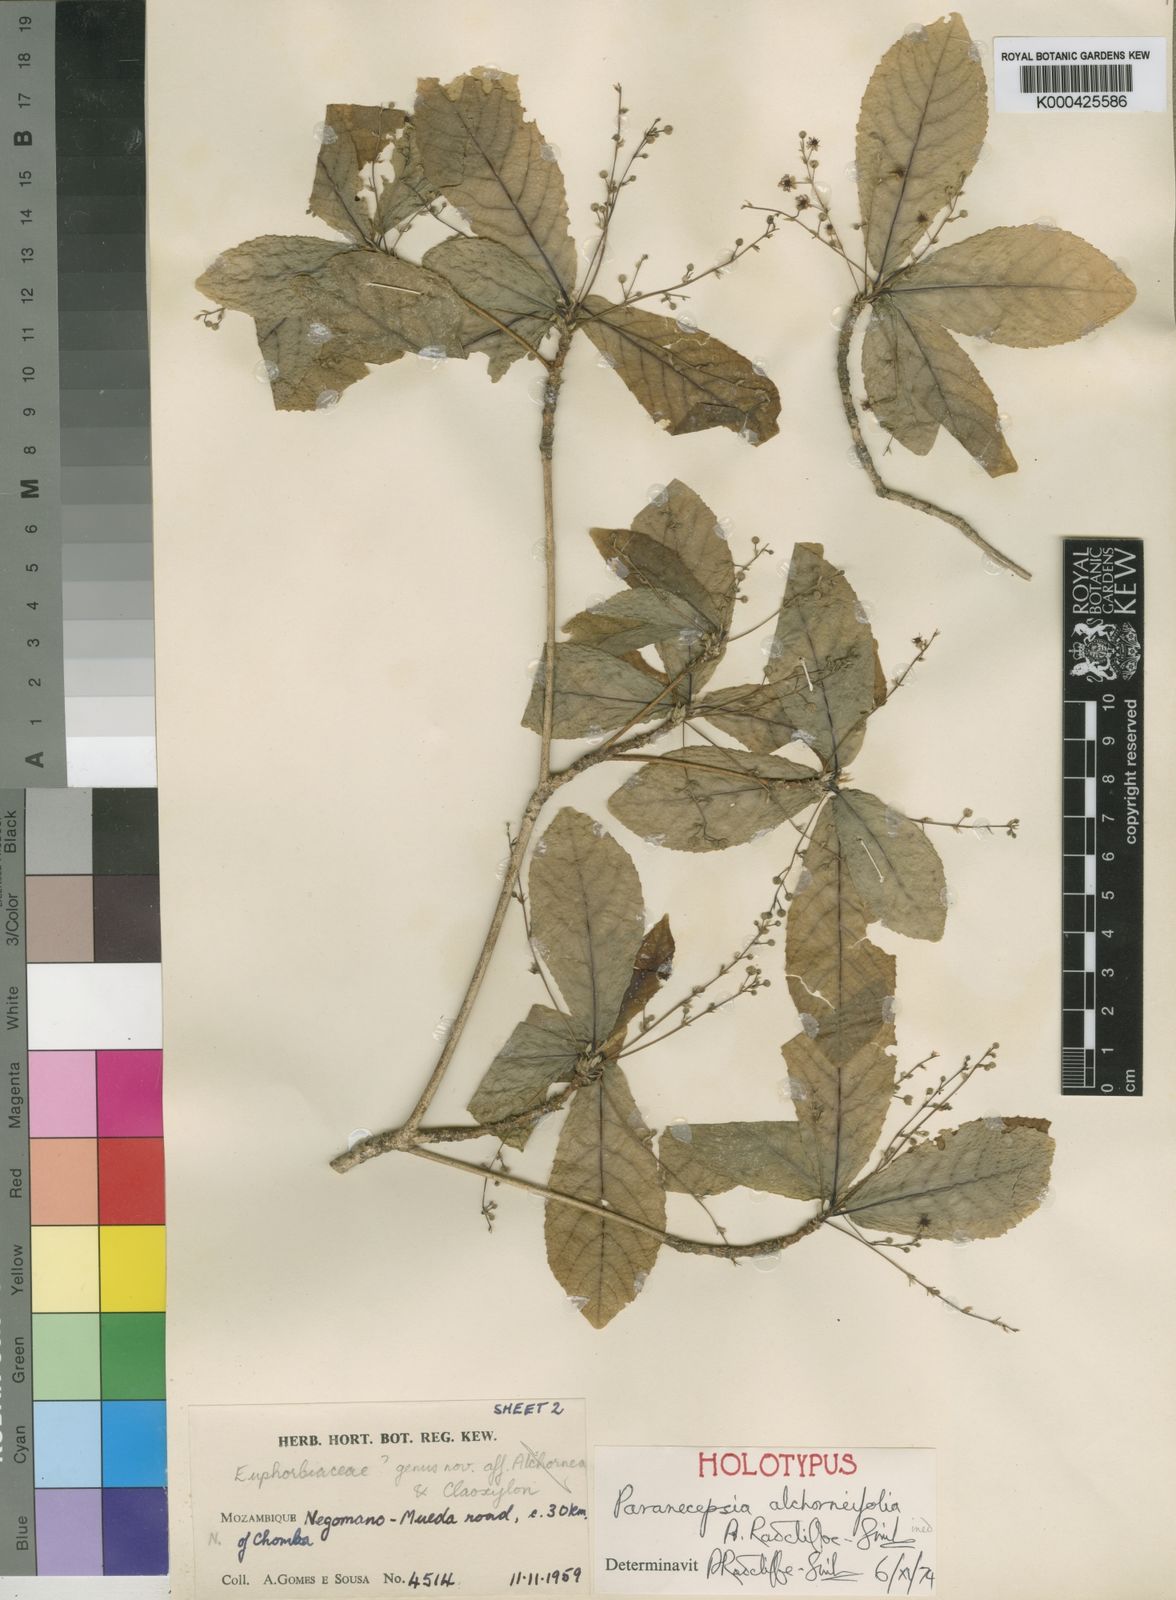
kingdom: Plantae
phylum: Tracheophyta
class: Magnoliopsida
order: Malpighiales
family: Euphorbiaceae
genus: Paranecepsia
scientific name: Paranecepsia alchorneifolia
